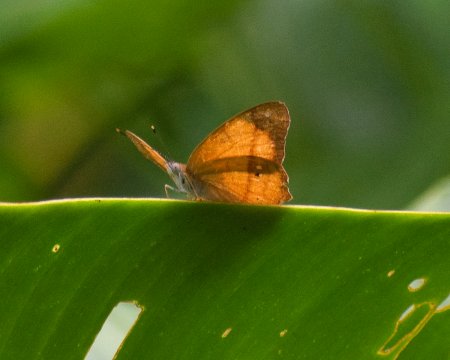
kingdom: Animalia
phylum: Arthropoda
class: Insecta
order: Lepidoptera
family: Nymphalidae
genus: Nica
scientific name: Nica flavilla
